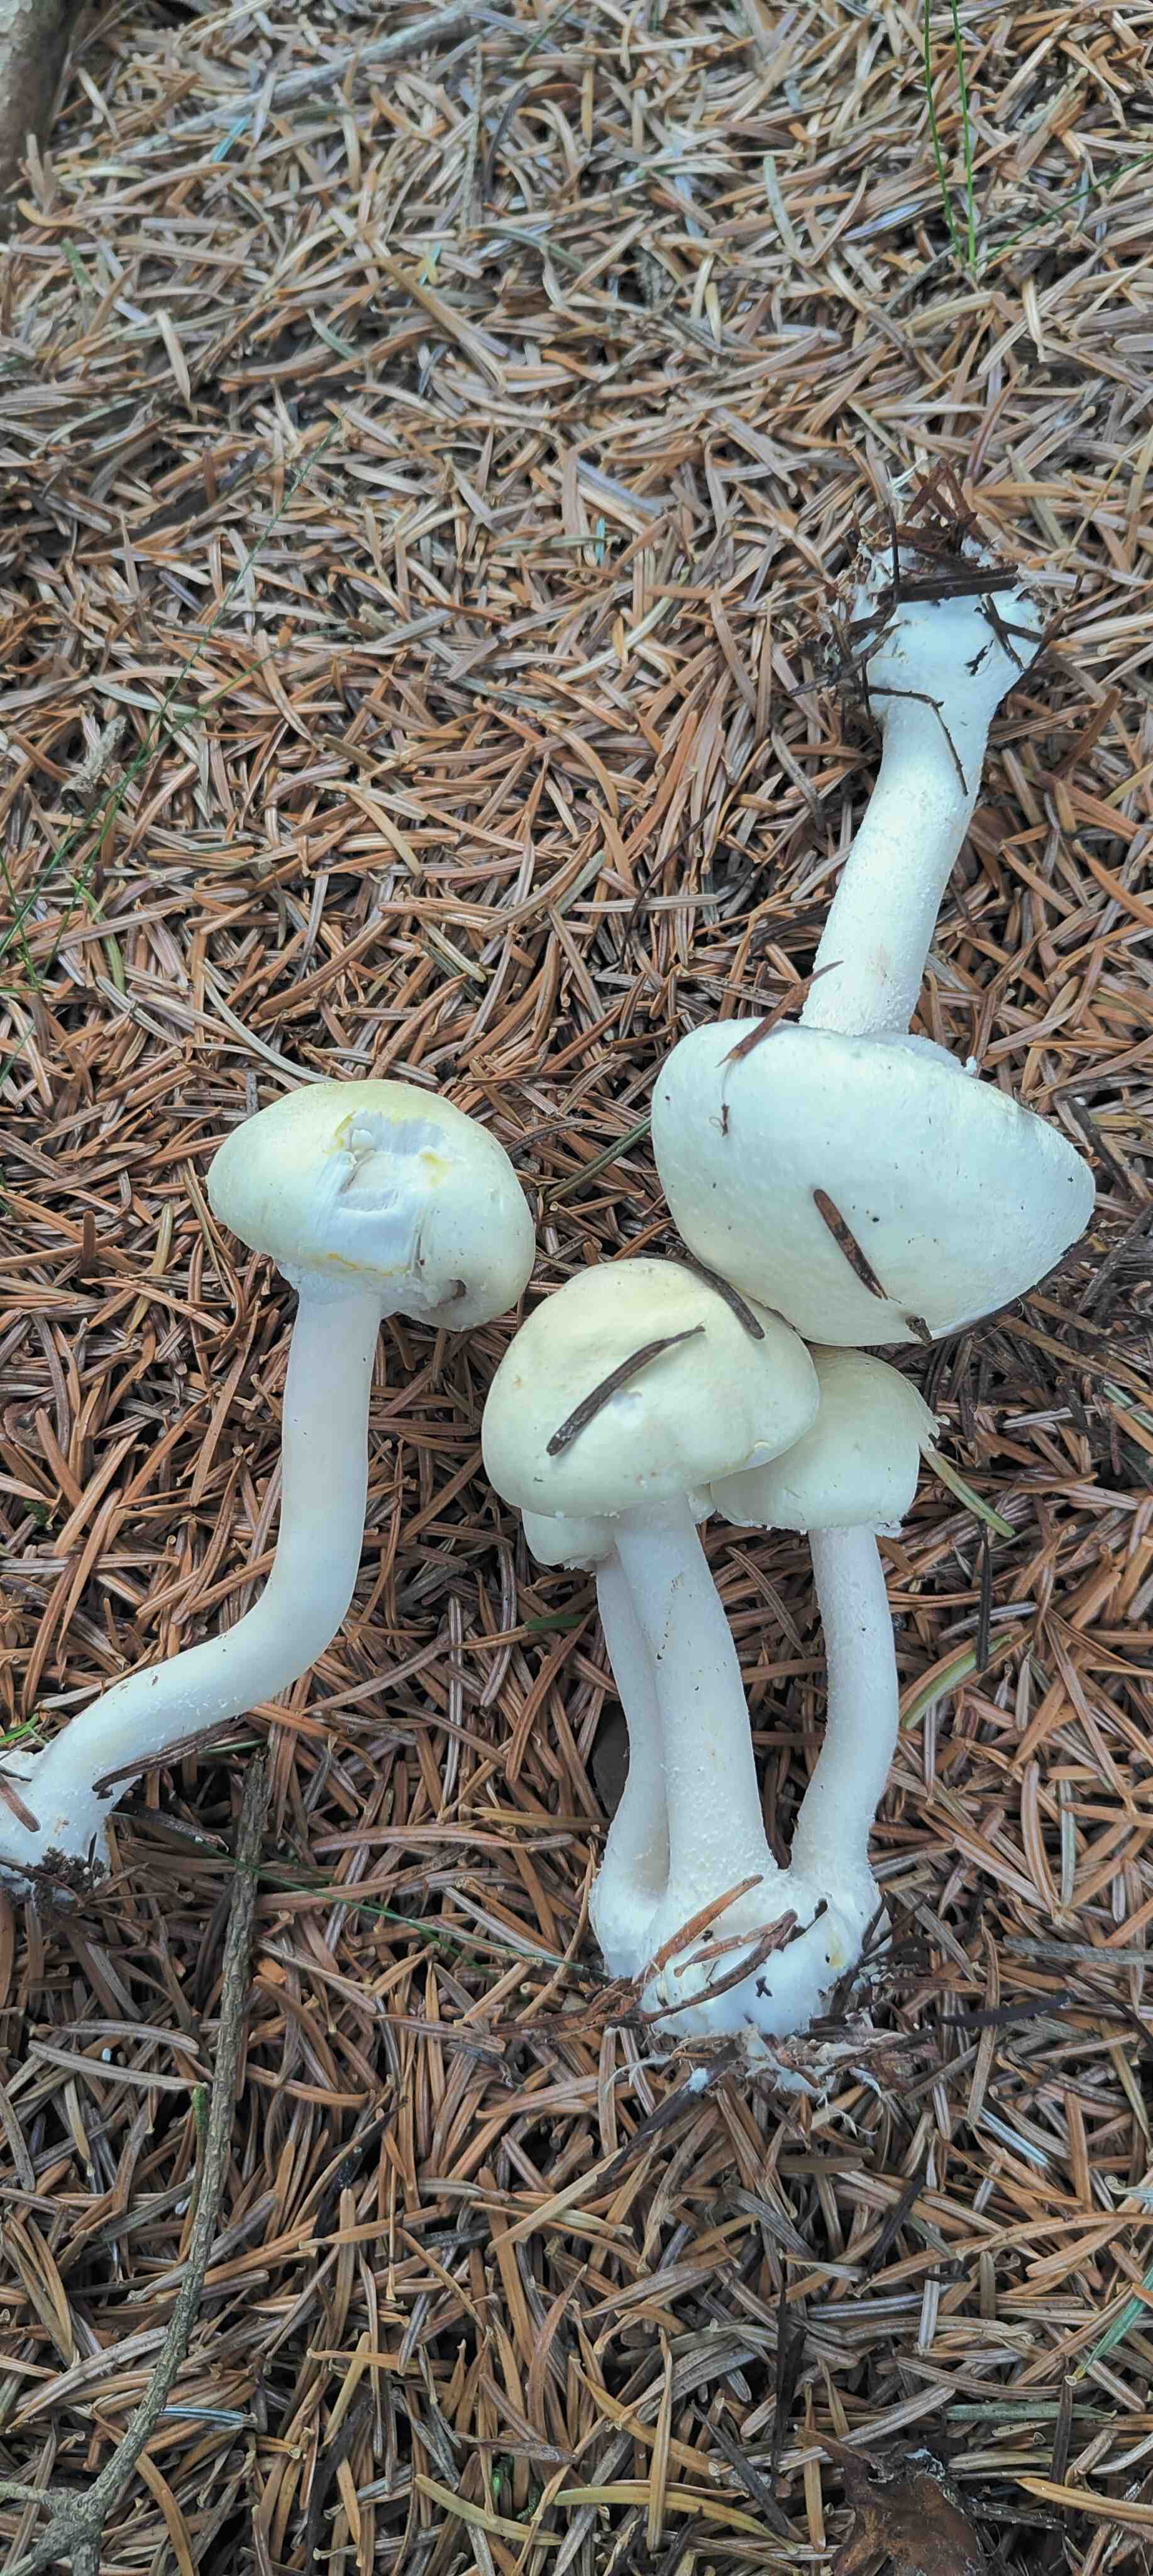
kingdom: Fungi
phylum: Basidiomycota
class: Agaricomycetes
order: Agaricales
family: Agaricaceae
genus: Agaricus
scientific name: Agaricus sylvicola
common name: skiveknoldet champignon
